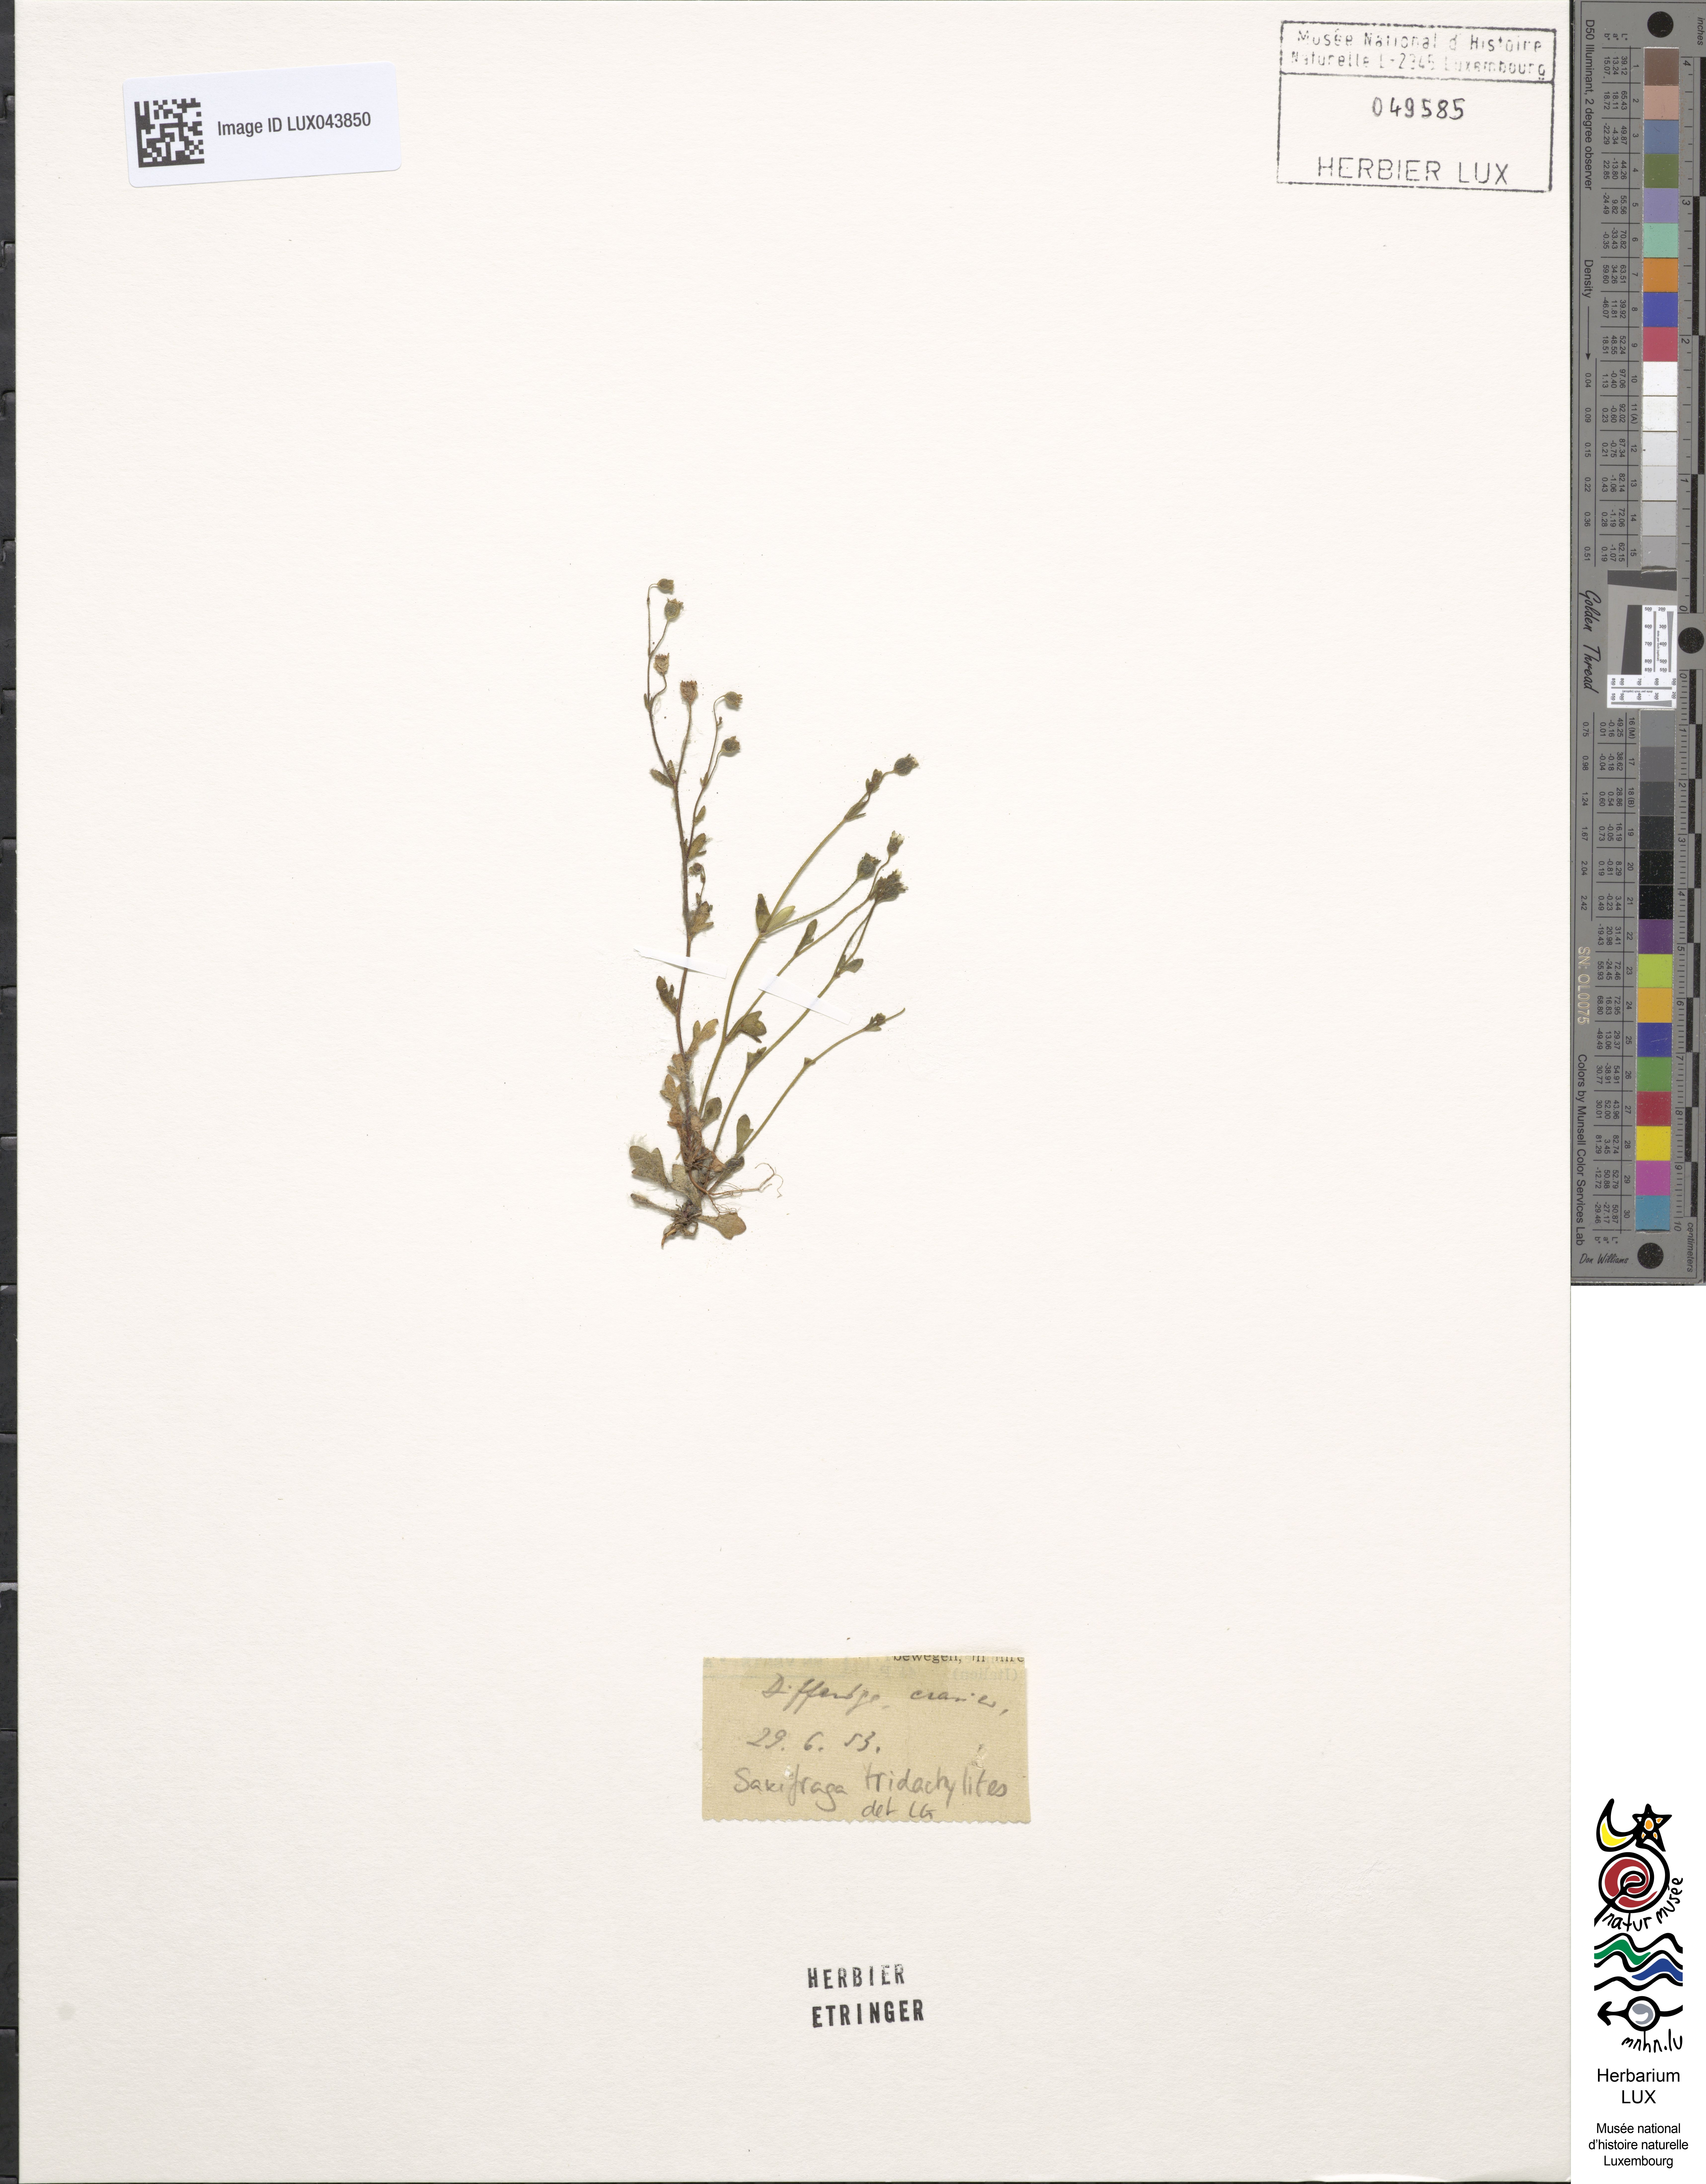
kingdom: Plantae
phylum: Tracheophyta
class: Magnoliopsida
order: Saxifragales
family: Saxifragaceae
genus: Saxifraga
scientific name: Saxifraga tridactylites
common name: Rue-leaved saxifrage
